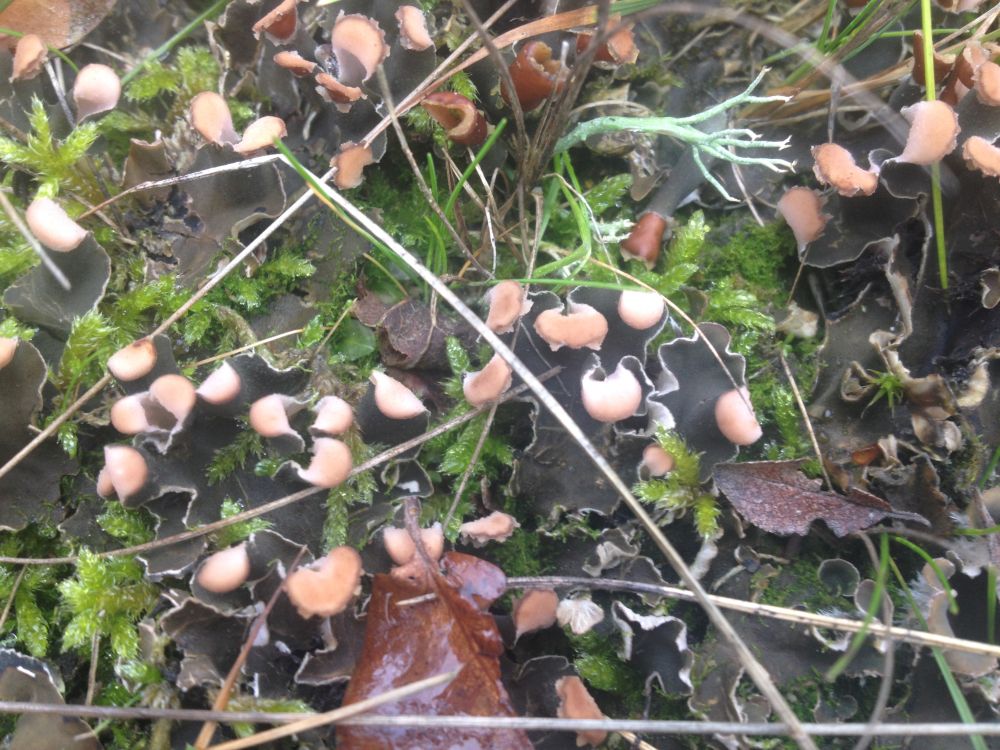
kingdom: Fungi
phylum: Ascomycota
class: Lecanoromycetes
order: Peltigerales
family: Peltigeraceae
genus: Peltigera
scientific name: Peltigera
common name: skjoldlav
